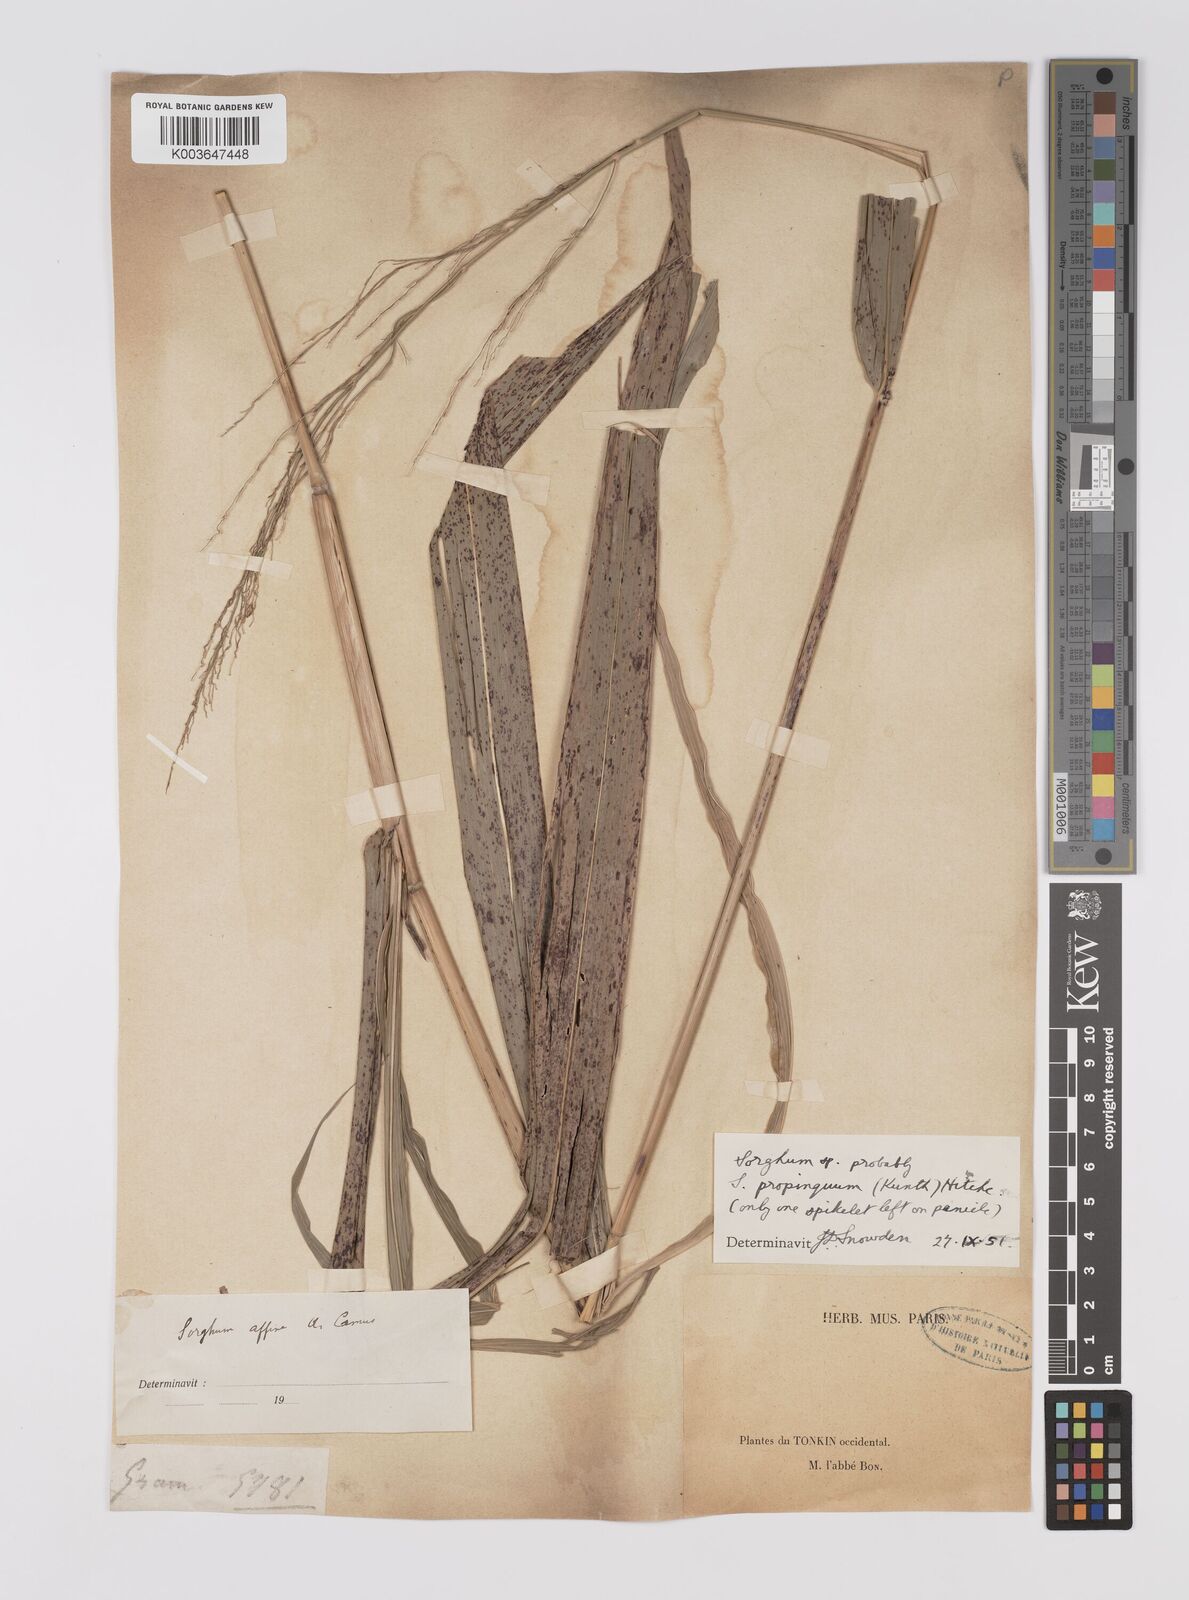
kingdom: Plantae
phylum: Tracheophyta
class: Liliopsida
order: Poales
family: Poaceae
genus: Dichanthium
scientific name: Dichanthium sericeum
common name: Silky bluestem
